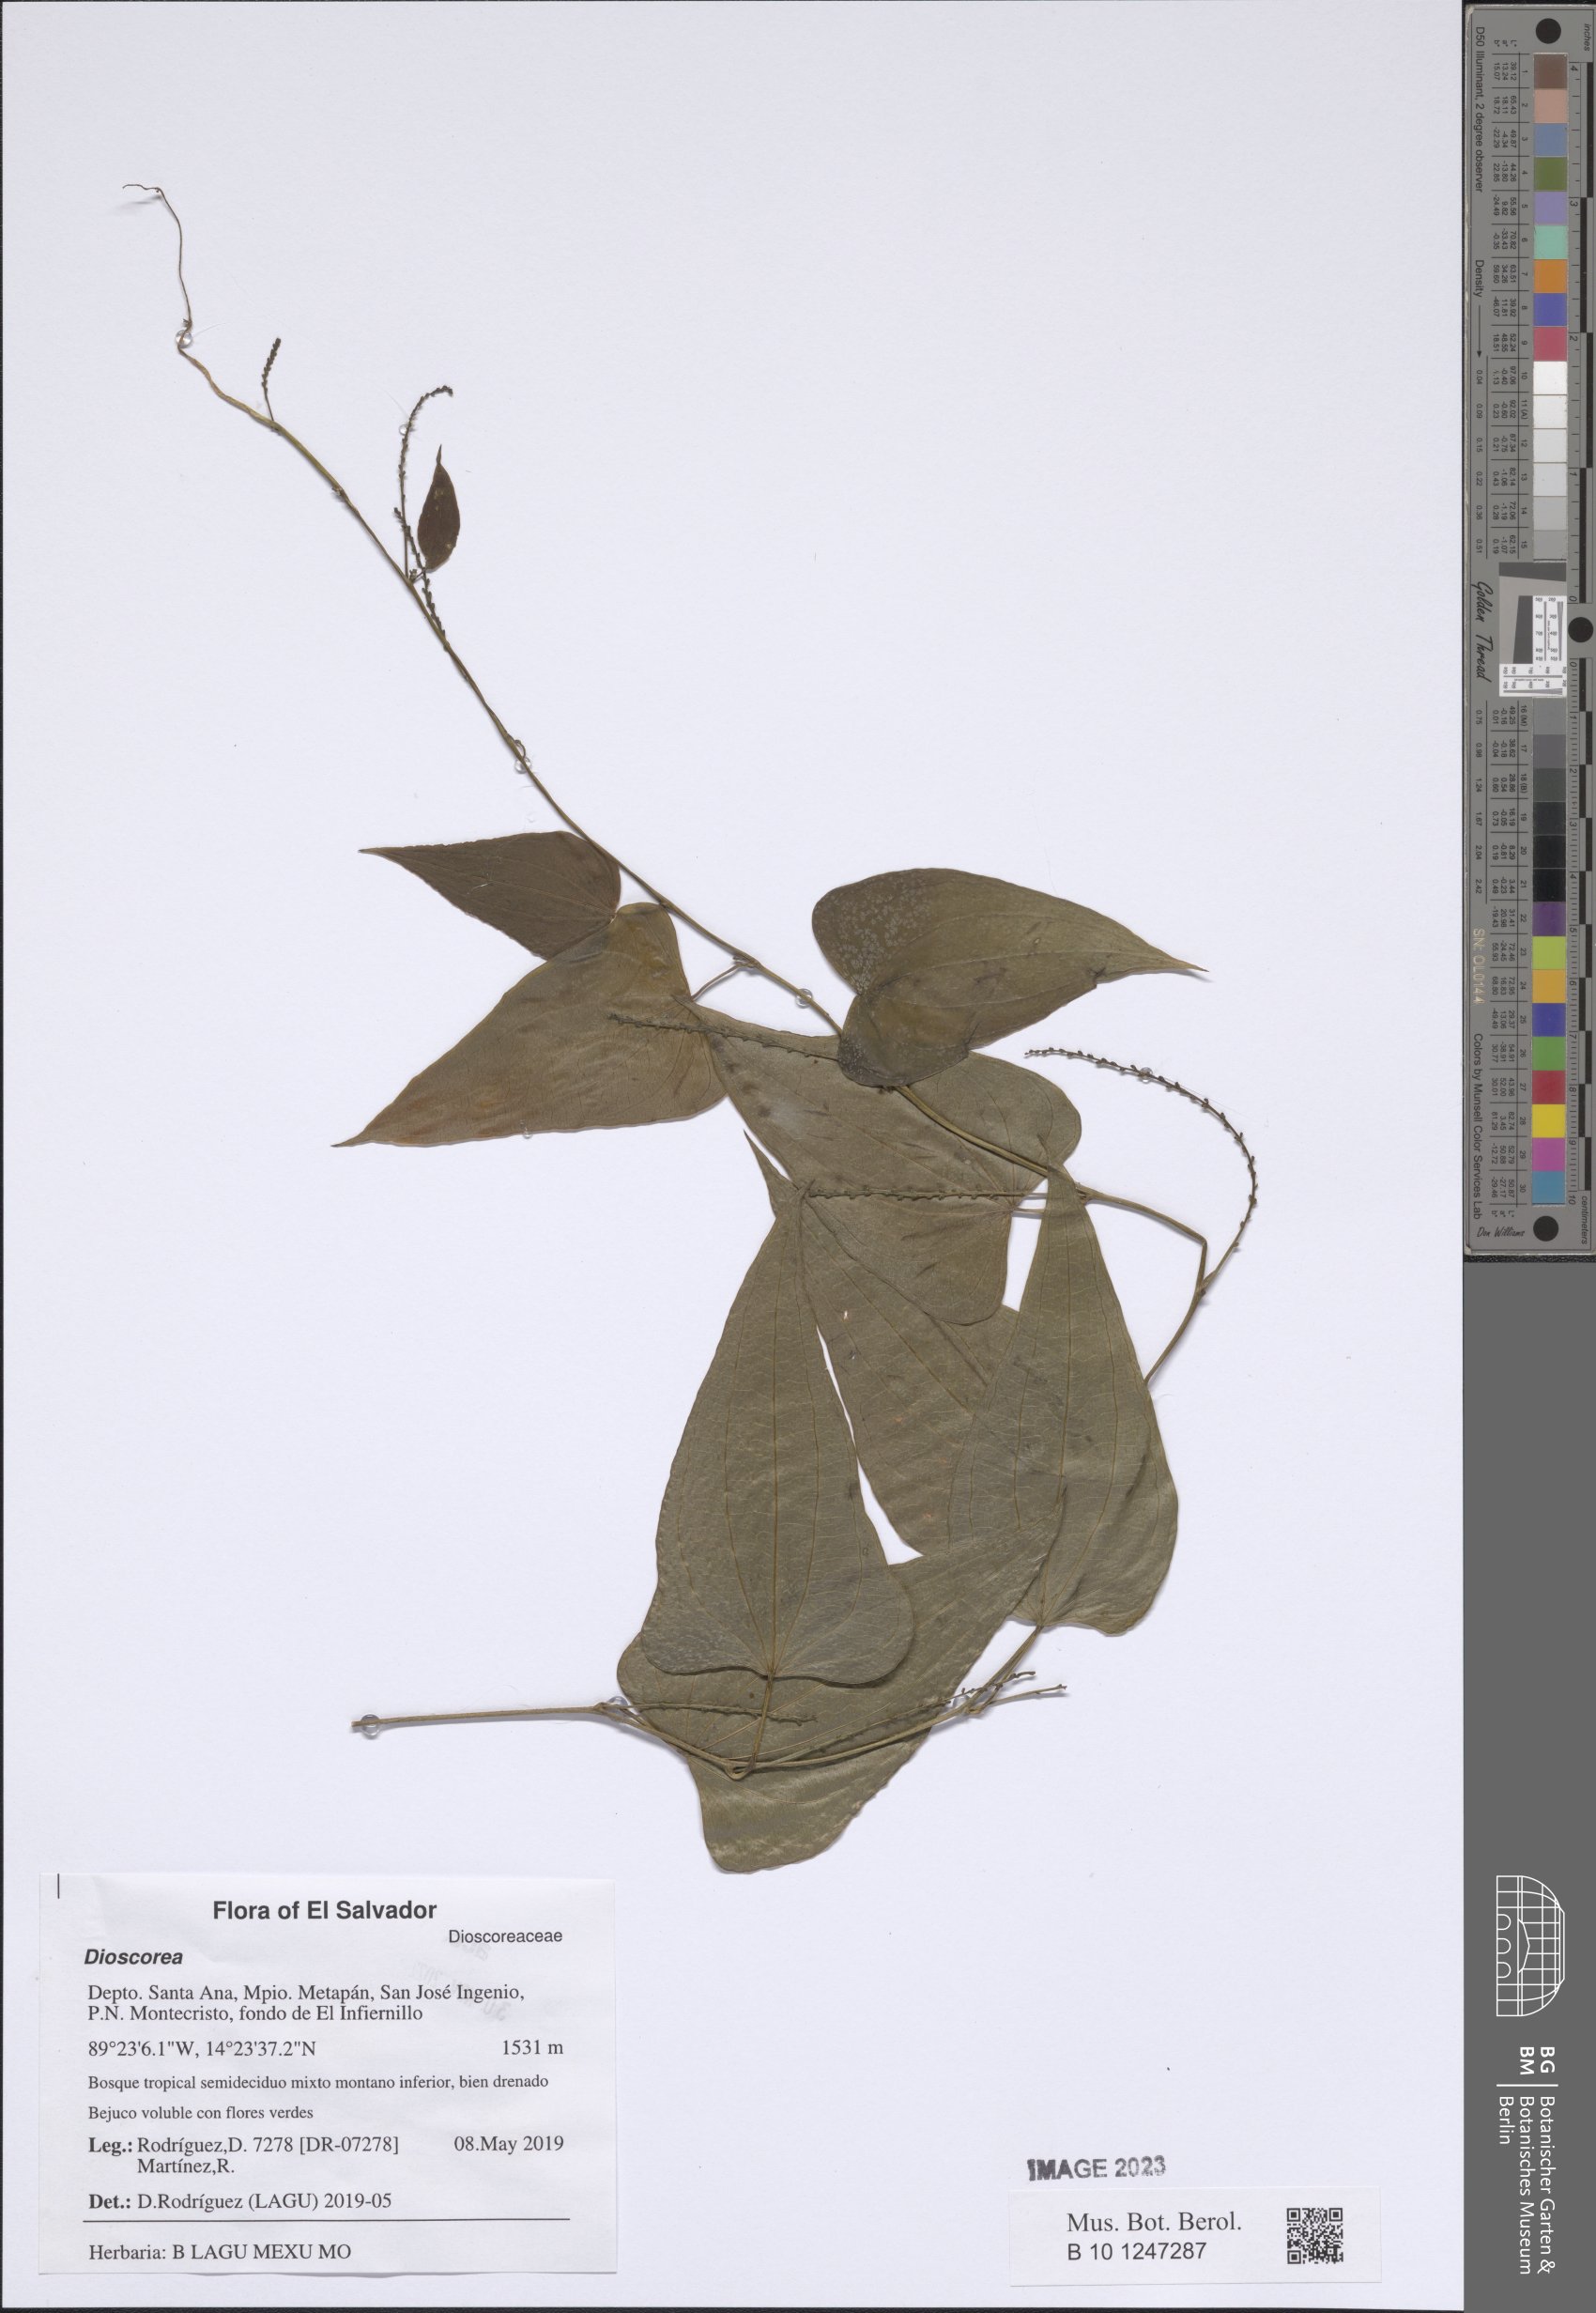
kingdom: Plantae
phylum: Tracheophyta
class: Liliopsida
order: Dioscoreales
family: Dioscoreaceae
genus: Dioscorea
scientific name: Dioscorea
